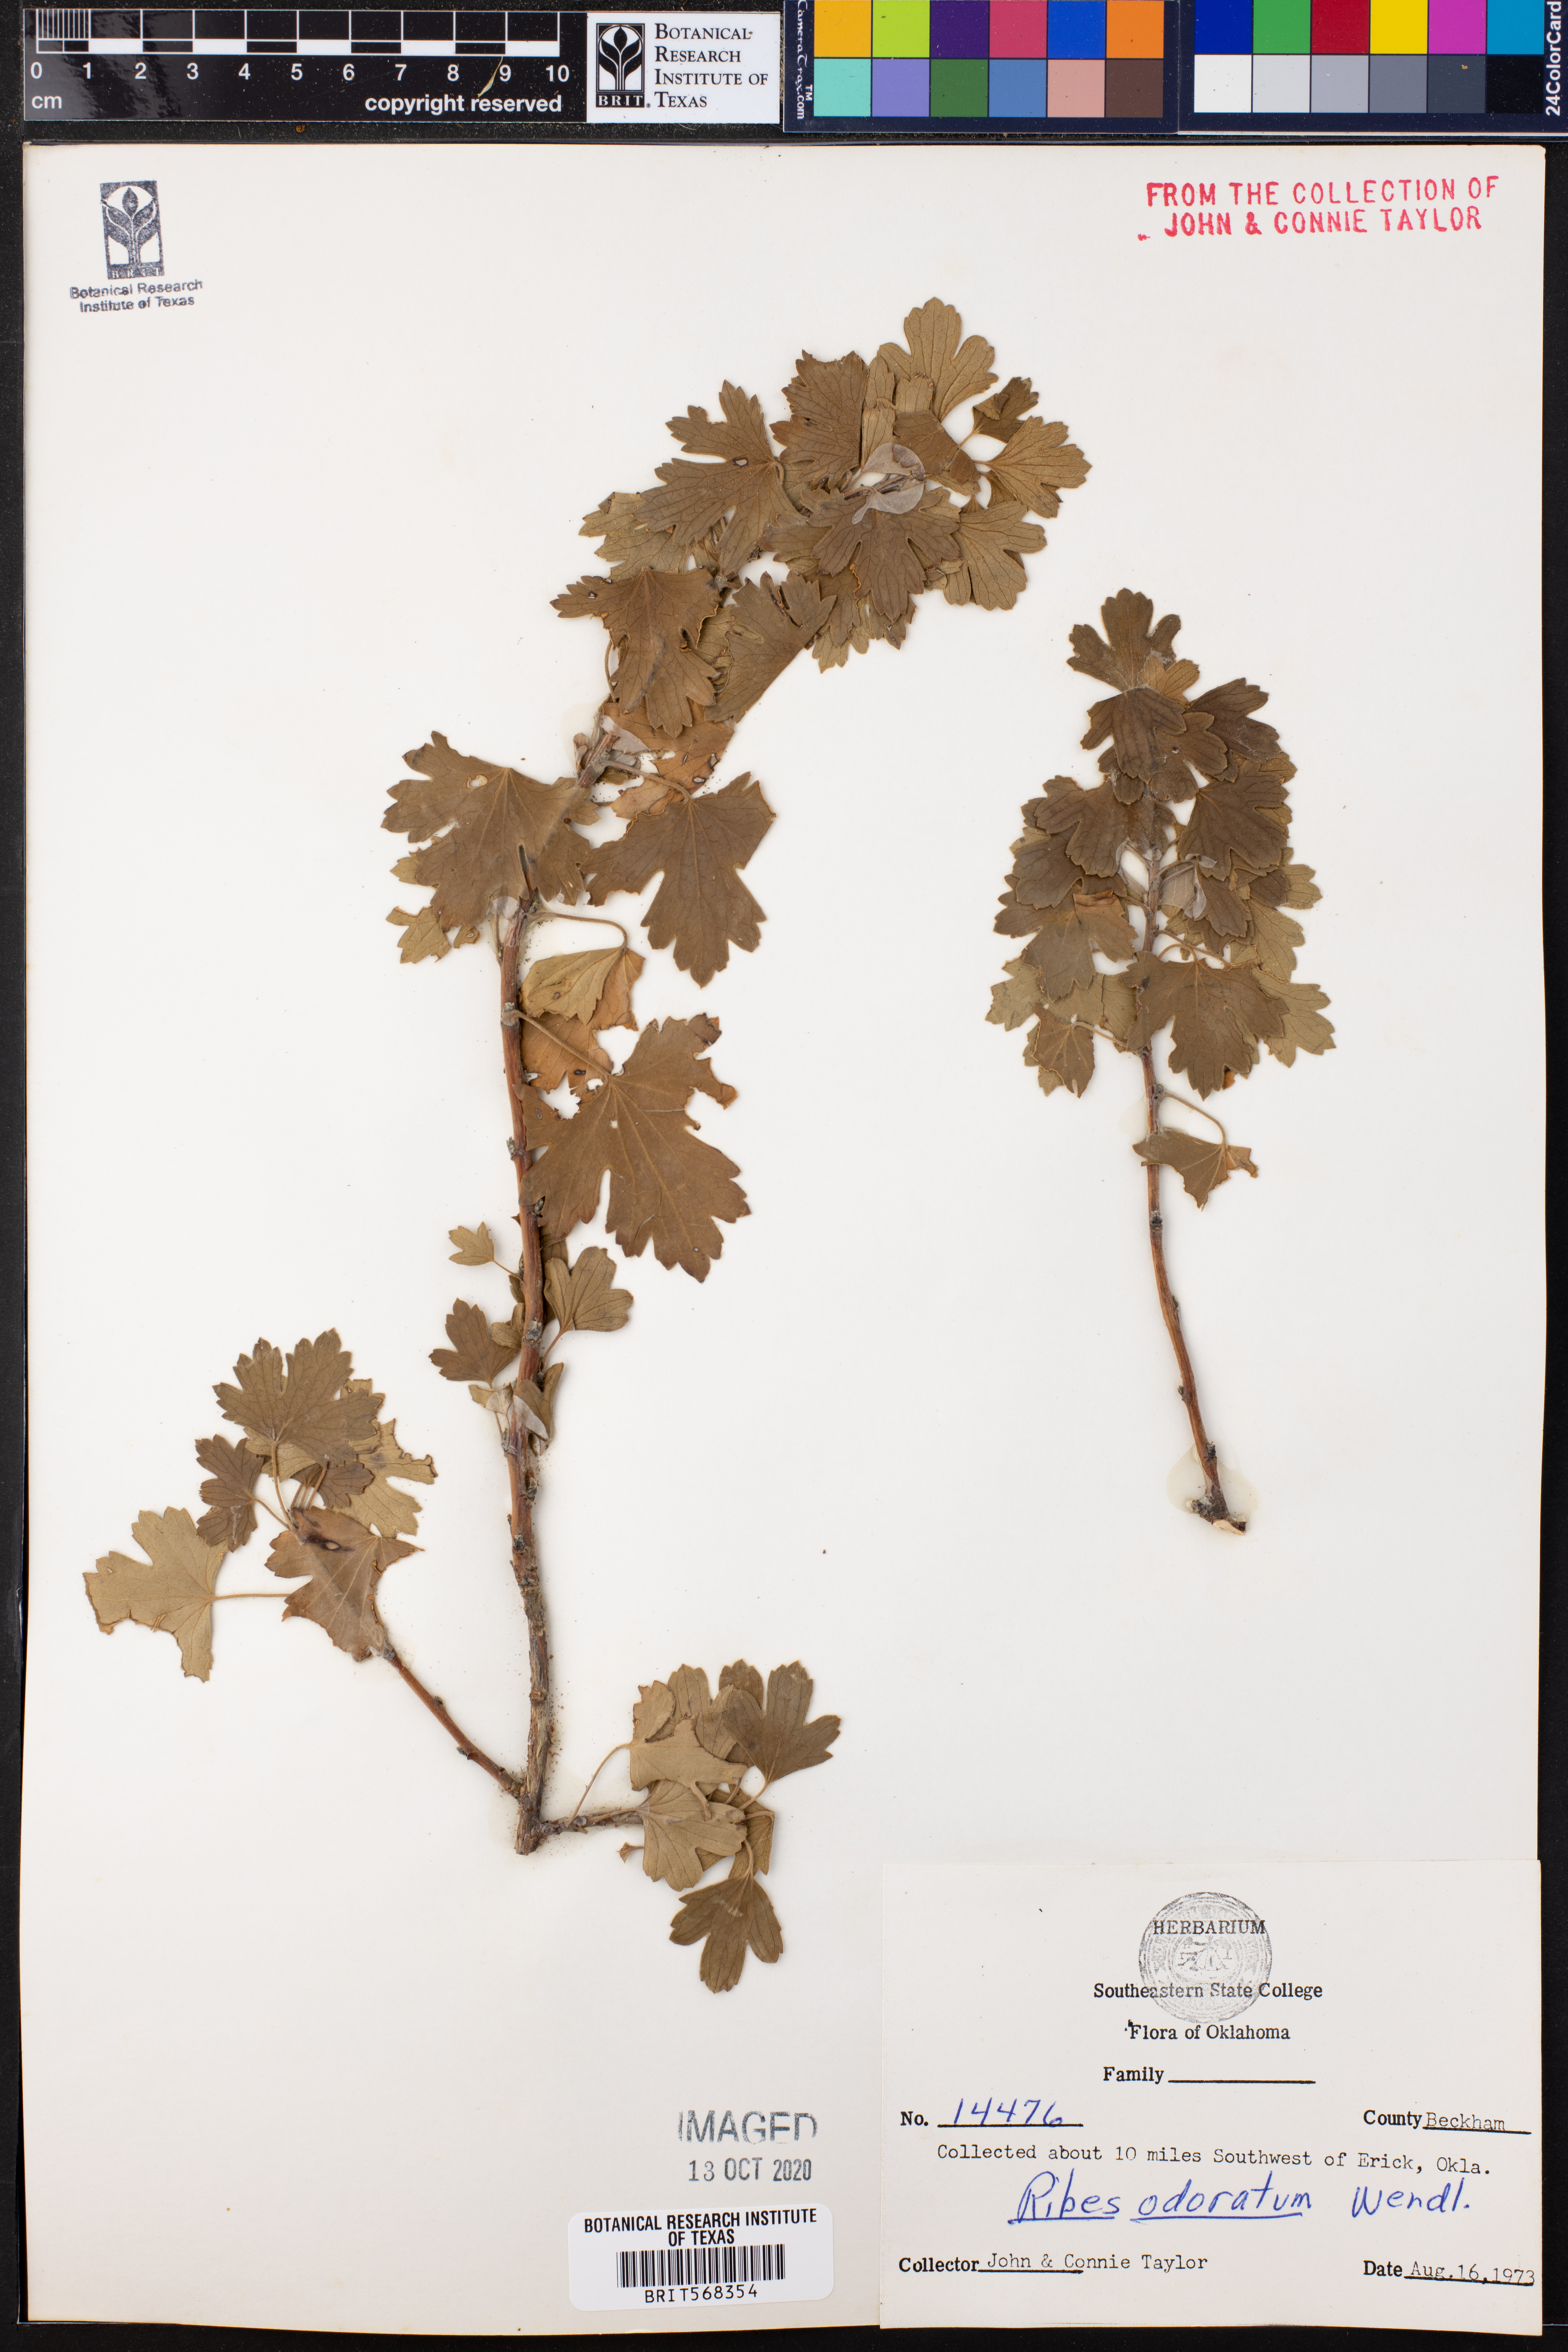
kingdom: Plantae
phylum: Tracheophyta
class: Magnoliopsida
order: Saxifragales
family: Grossulariaceae
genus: Ribes
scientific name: Ribes aureum
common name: Golden currant
